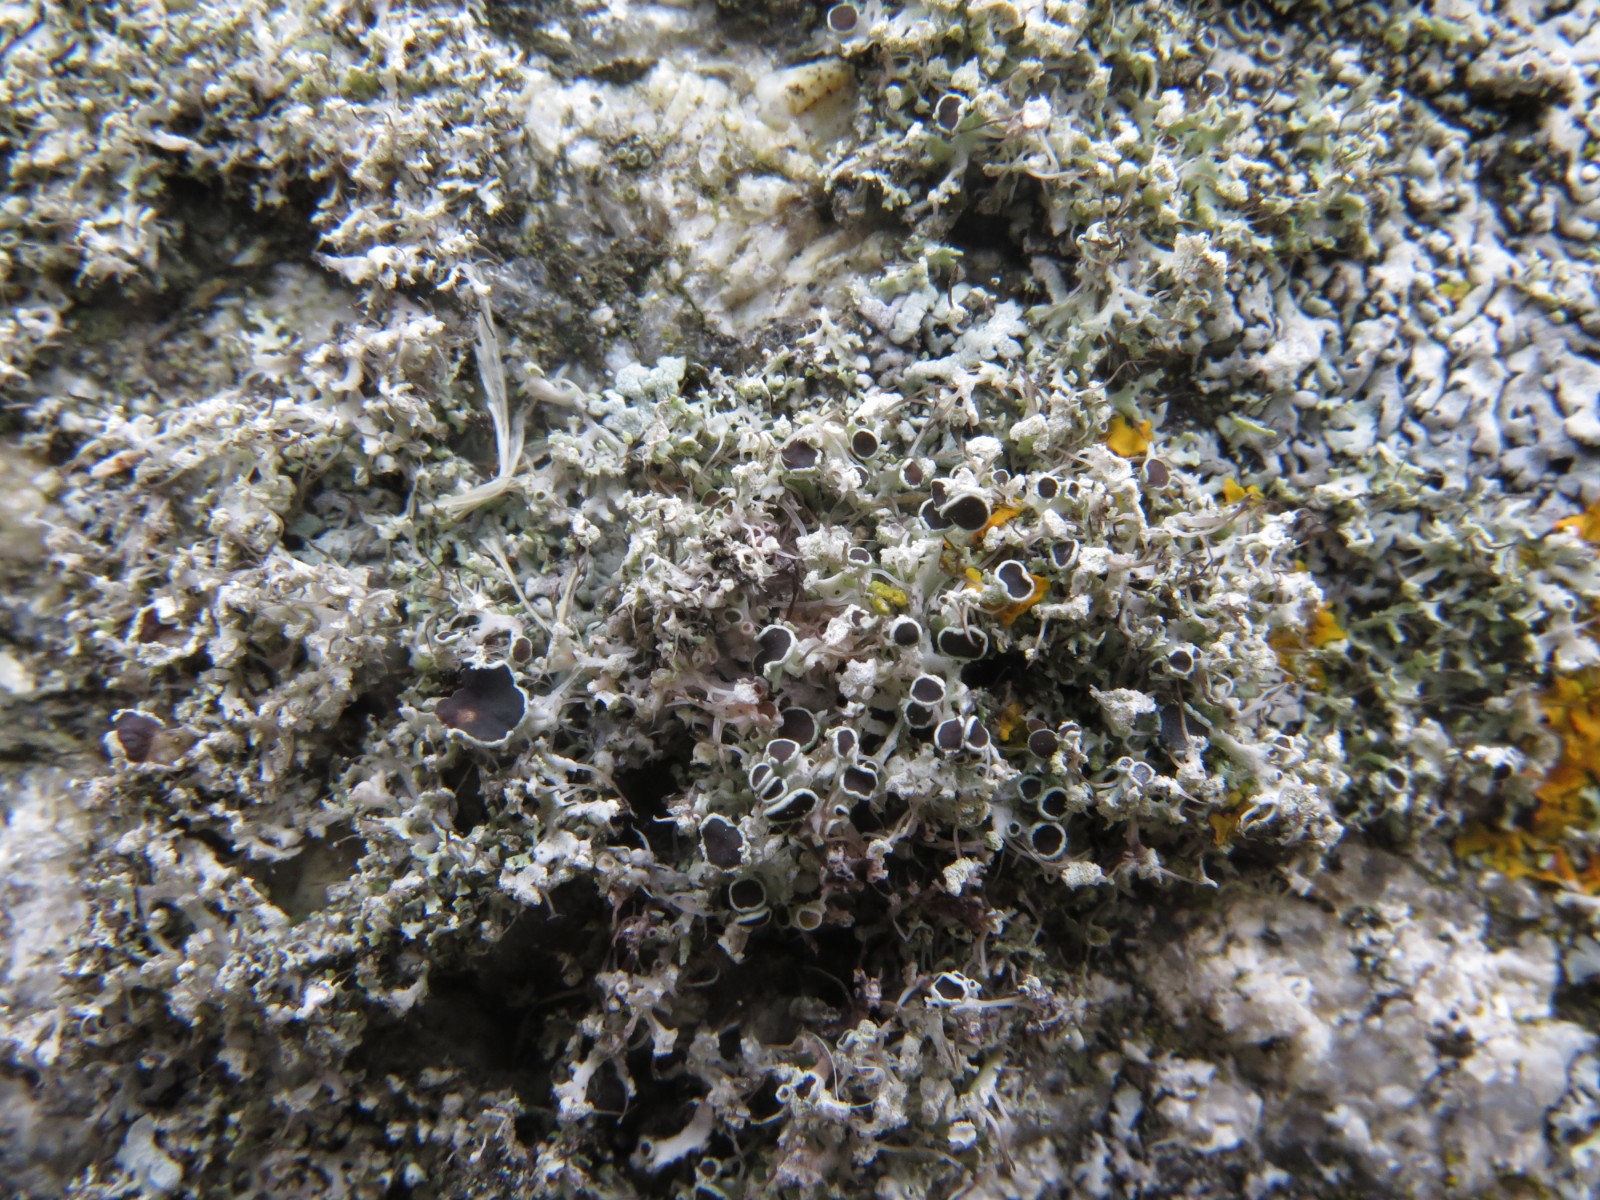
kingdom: Fungi
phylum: Ascomycota
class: Lecanoromycetes
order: Caliciales
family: Physciaceae
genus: Physcia
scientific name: Physcia tenella
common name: spæd rosetlav
